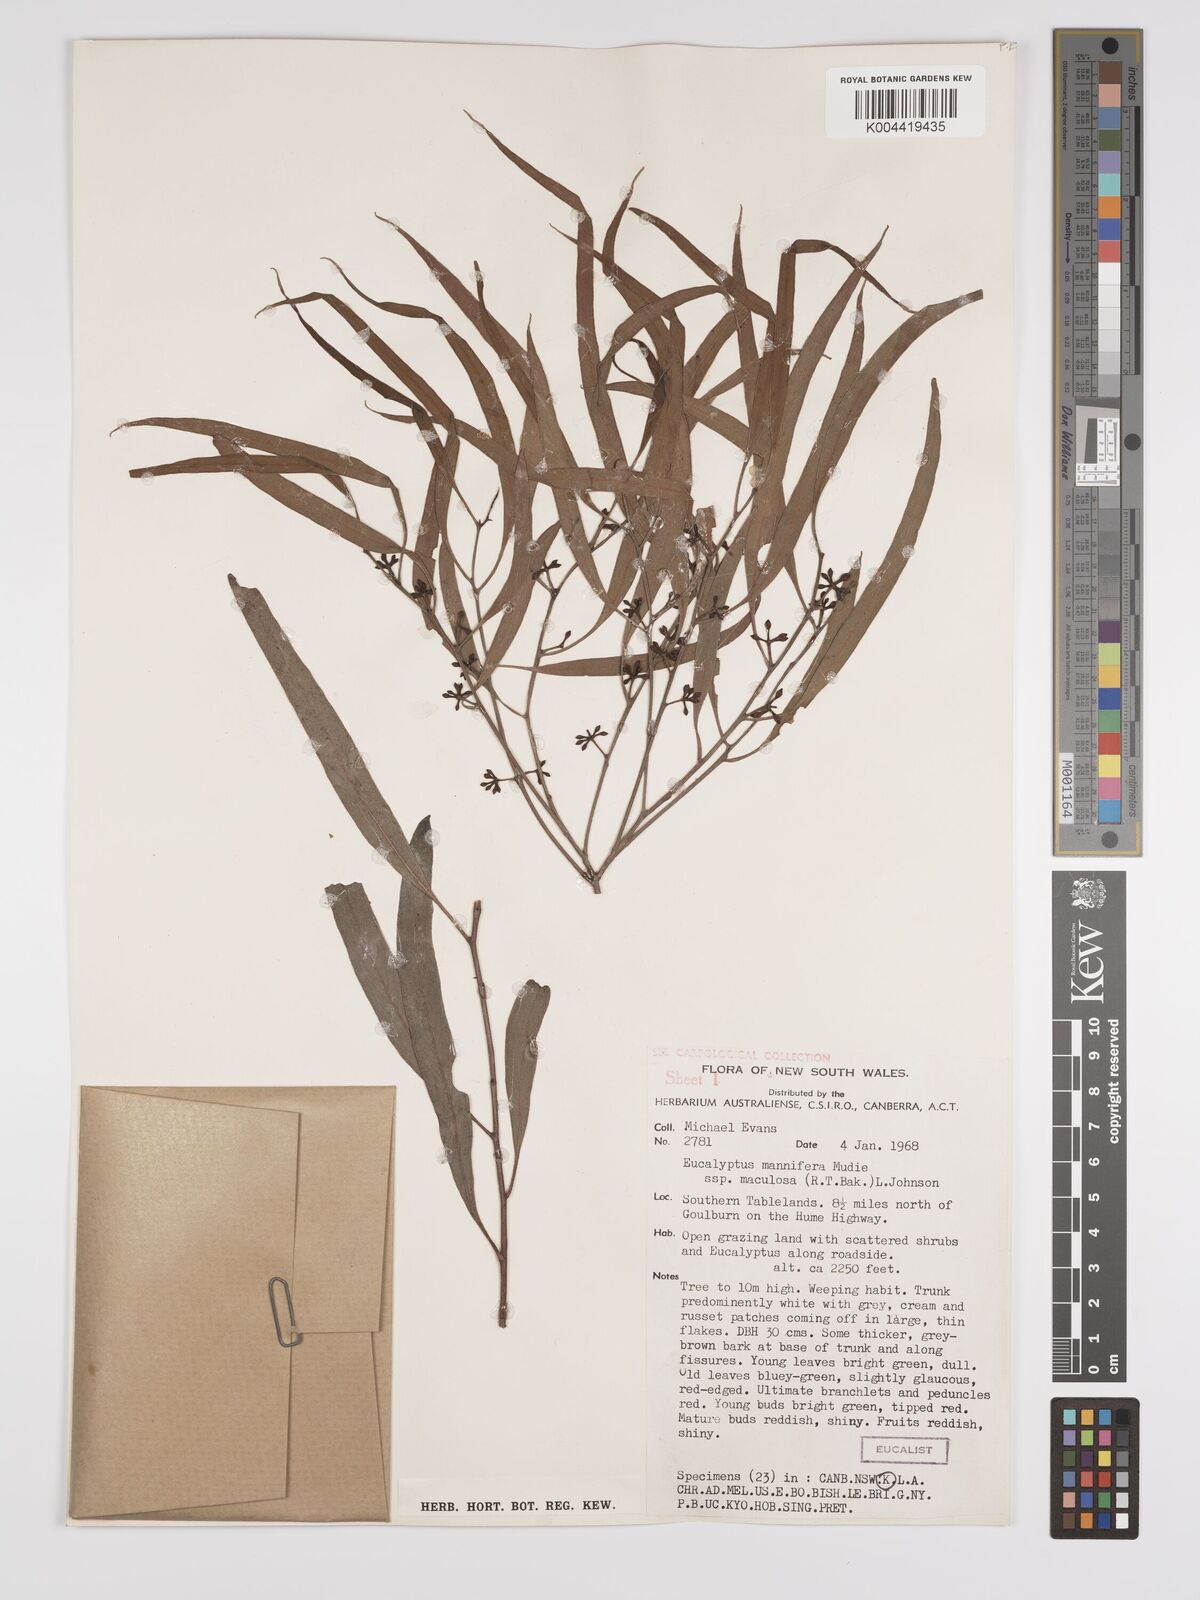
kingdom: Plantae
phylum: Tracheophyta
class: Magnoliopsida
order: Myrtales
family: Myrtaceae
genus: Eucalyptus
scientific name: Eucalyptus mannifera
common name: Manna gum
